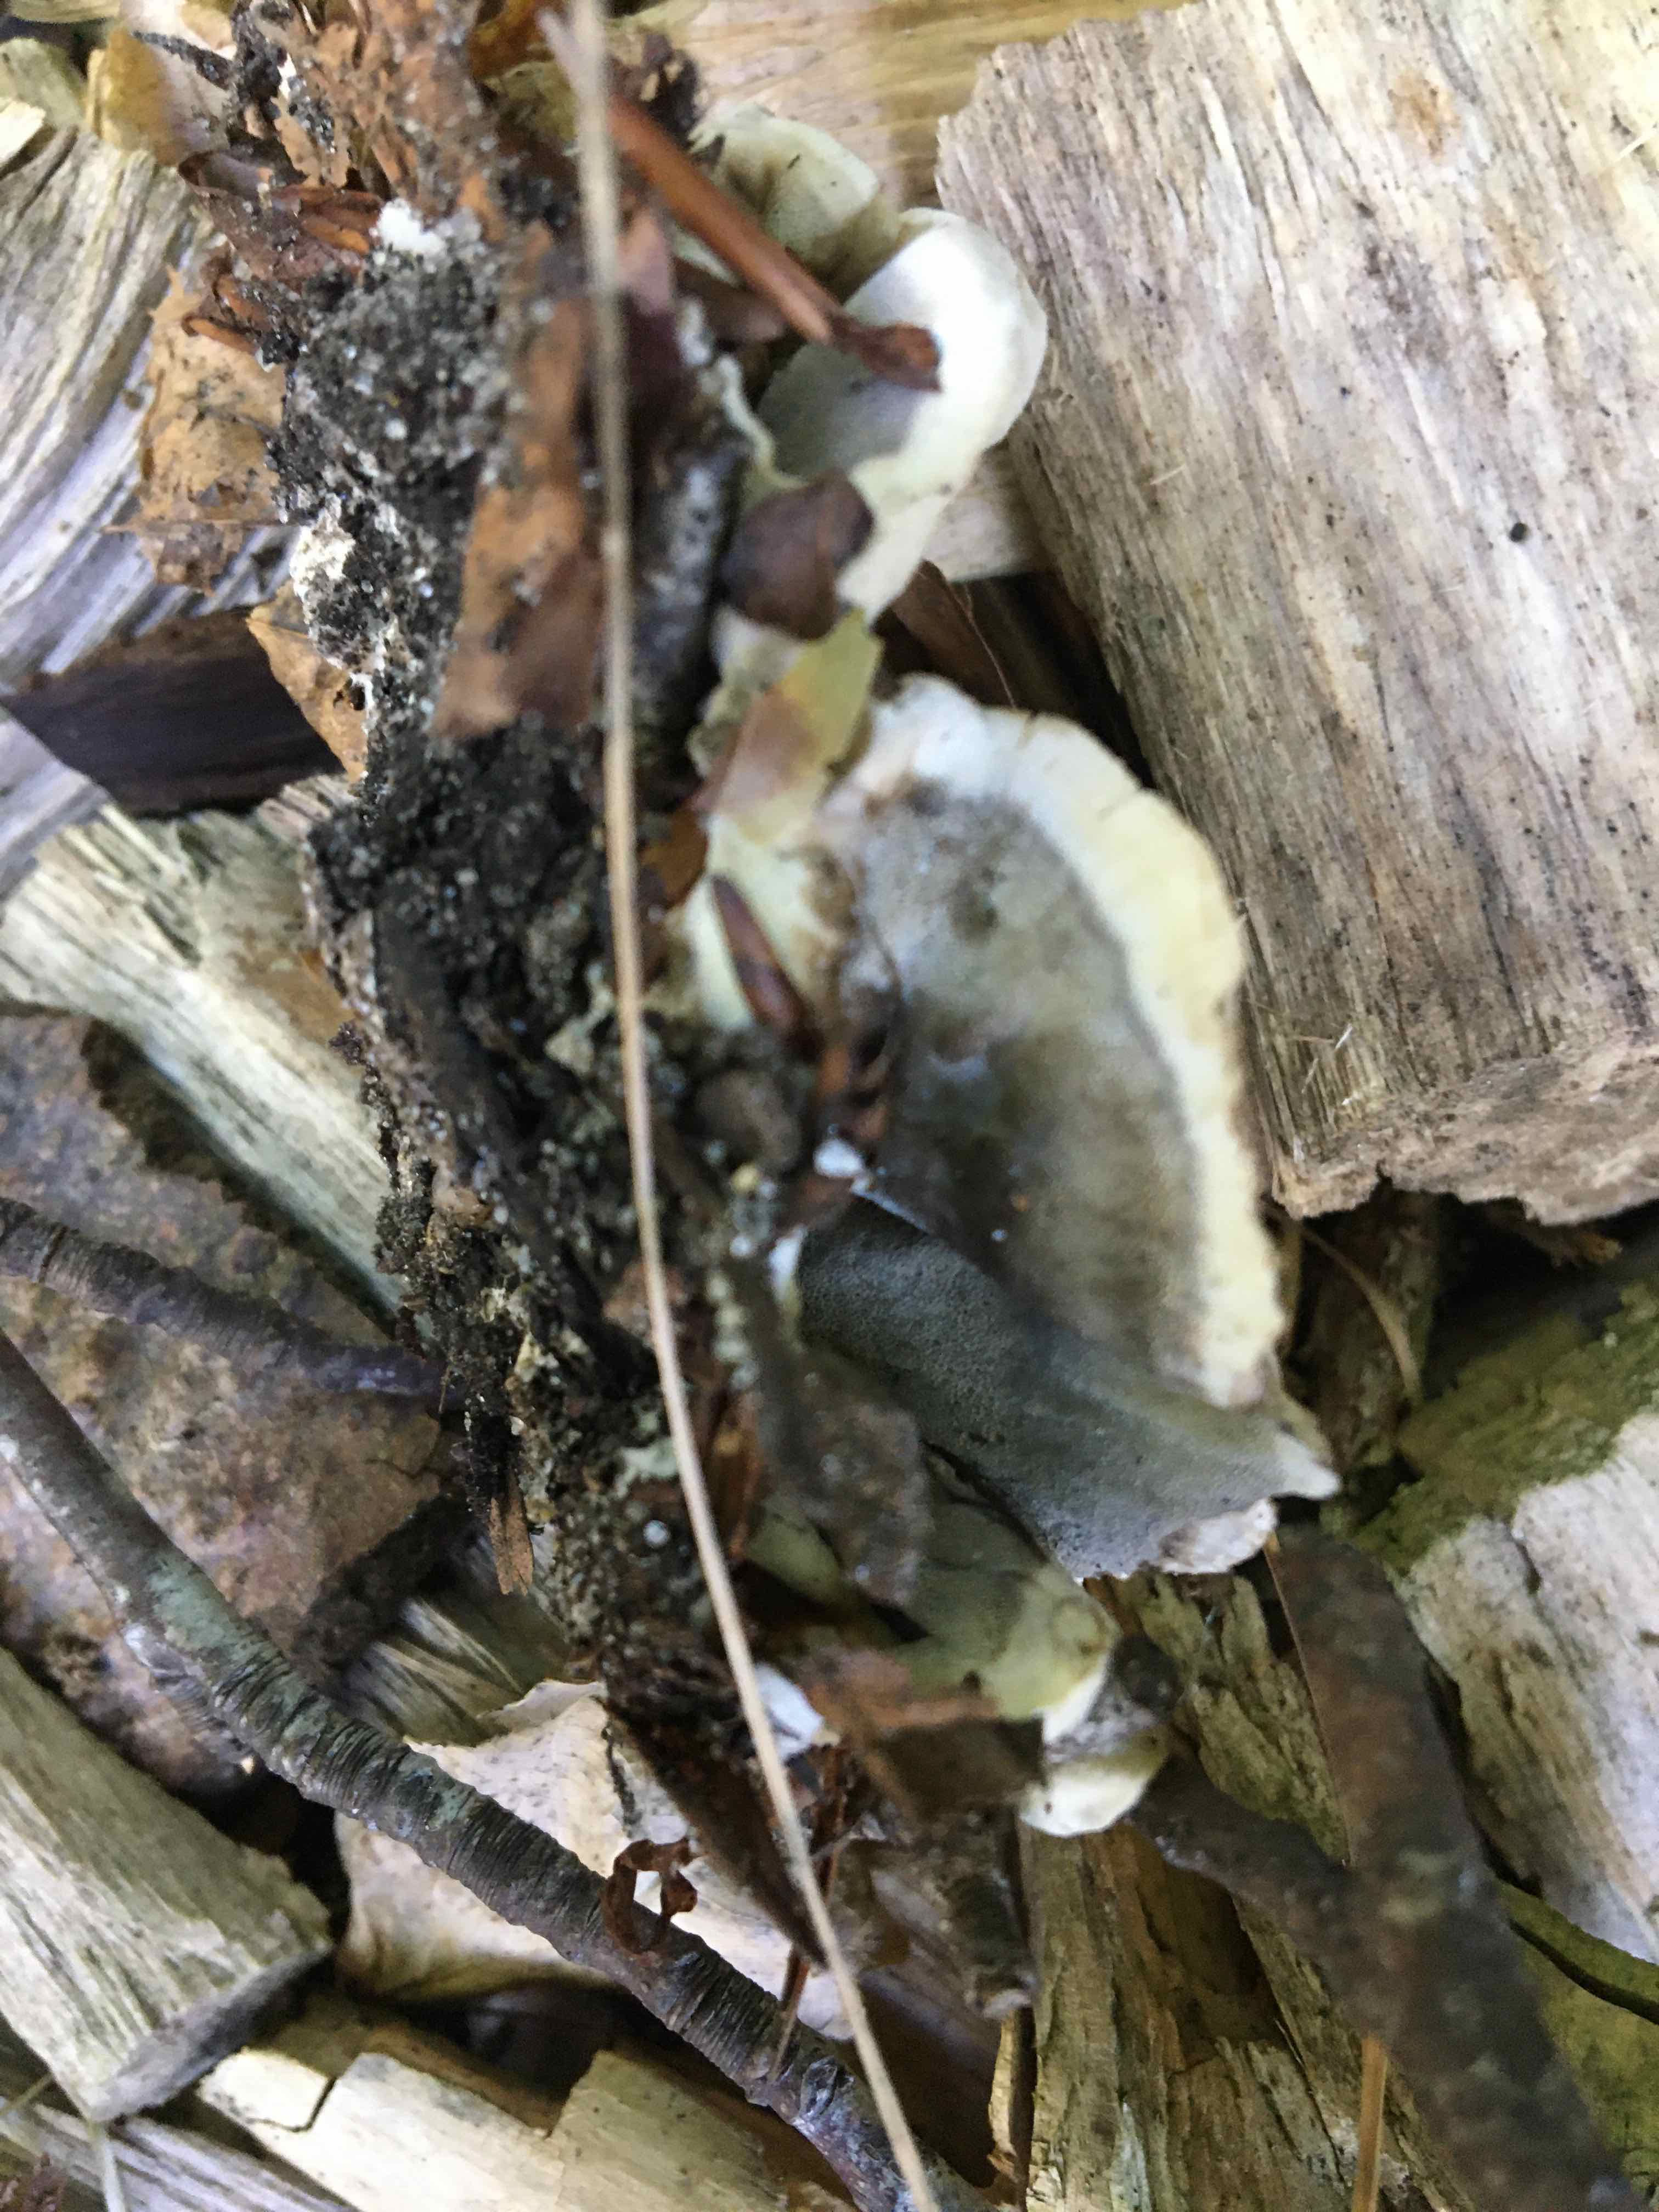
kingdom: Fungi
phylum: Basidiomycota
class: Agaricomycetes
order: Polyporales
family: Phanerochaetaceae
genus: Bjerkandera
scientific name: Bjerkandera adusta
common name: sveden sodporesvamp
